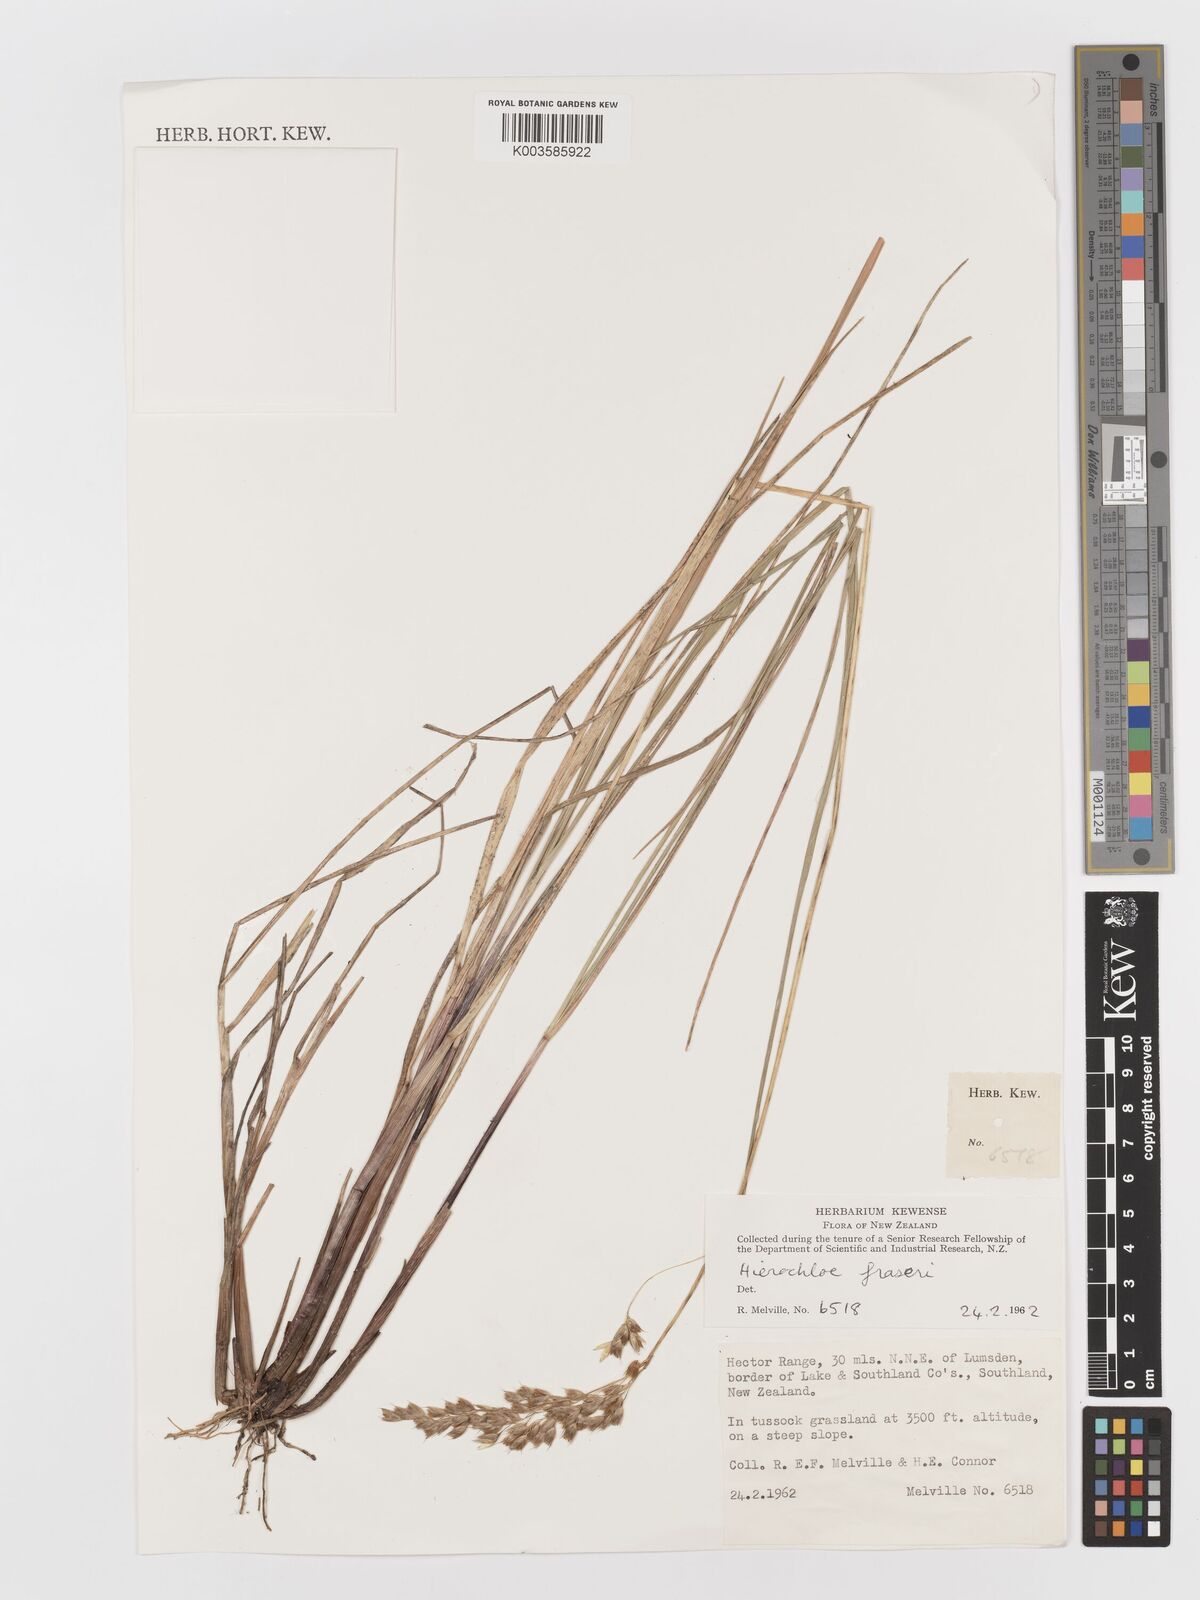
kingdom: Plantae
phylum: Tracheophyta
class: Liliopsida
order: Poales
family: Poaceae
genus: Anthoxanthum
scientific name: Anthoxanthum novae-zelandiae
